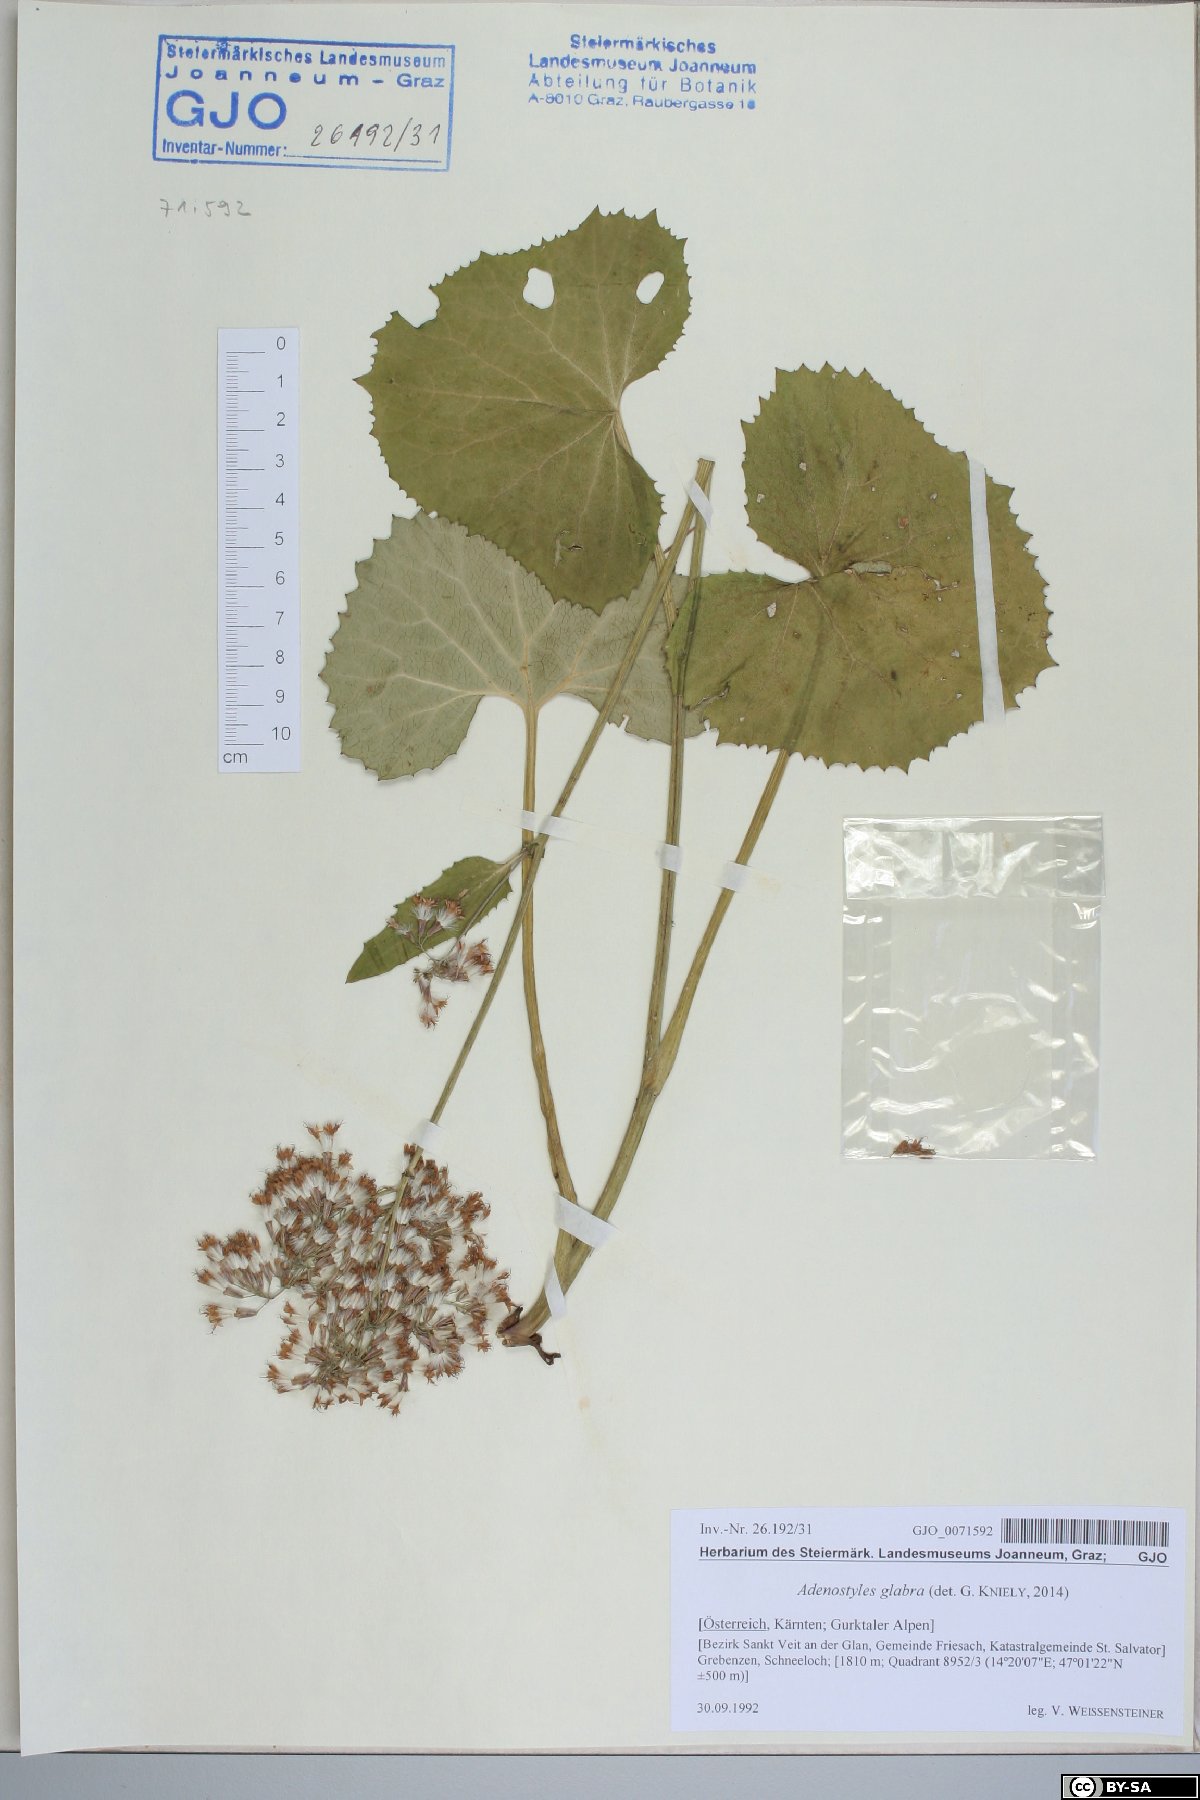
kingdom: Plantae
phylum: Tracheophyta
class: Magnoliopsida
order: Asterales
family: Asteraceae
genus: Adenostyles
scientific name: Adenostyles alpina
